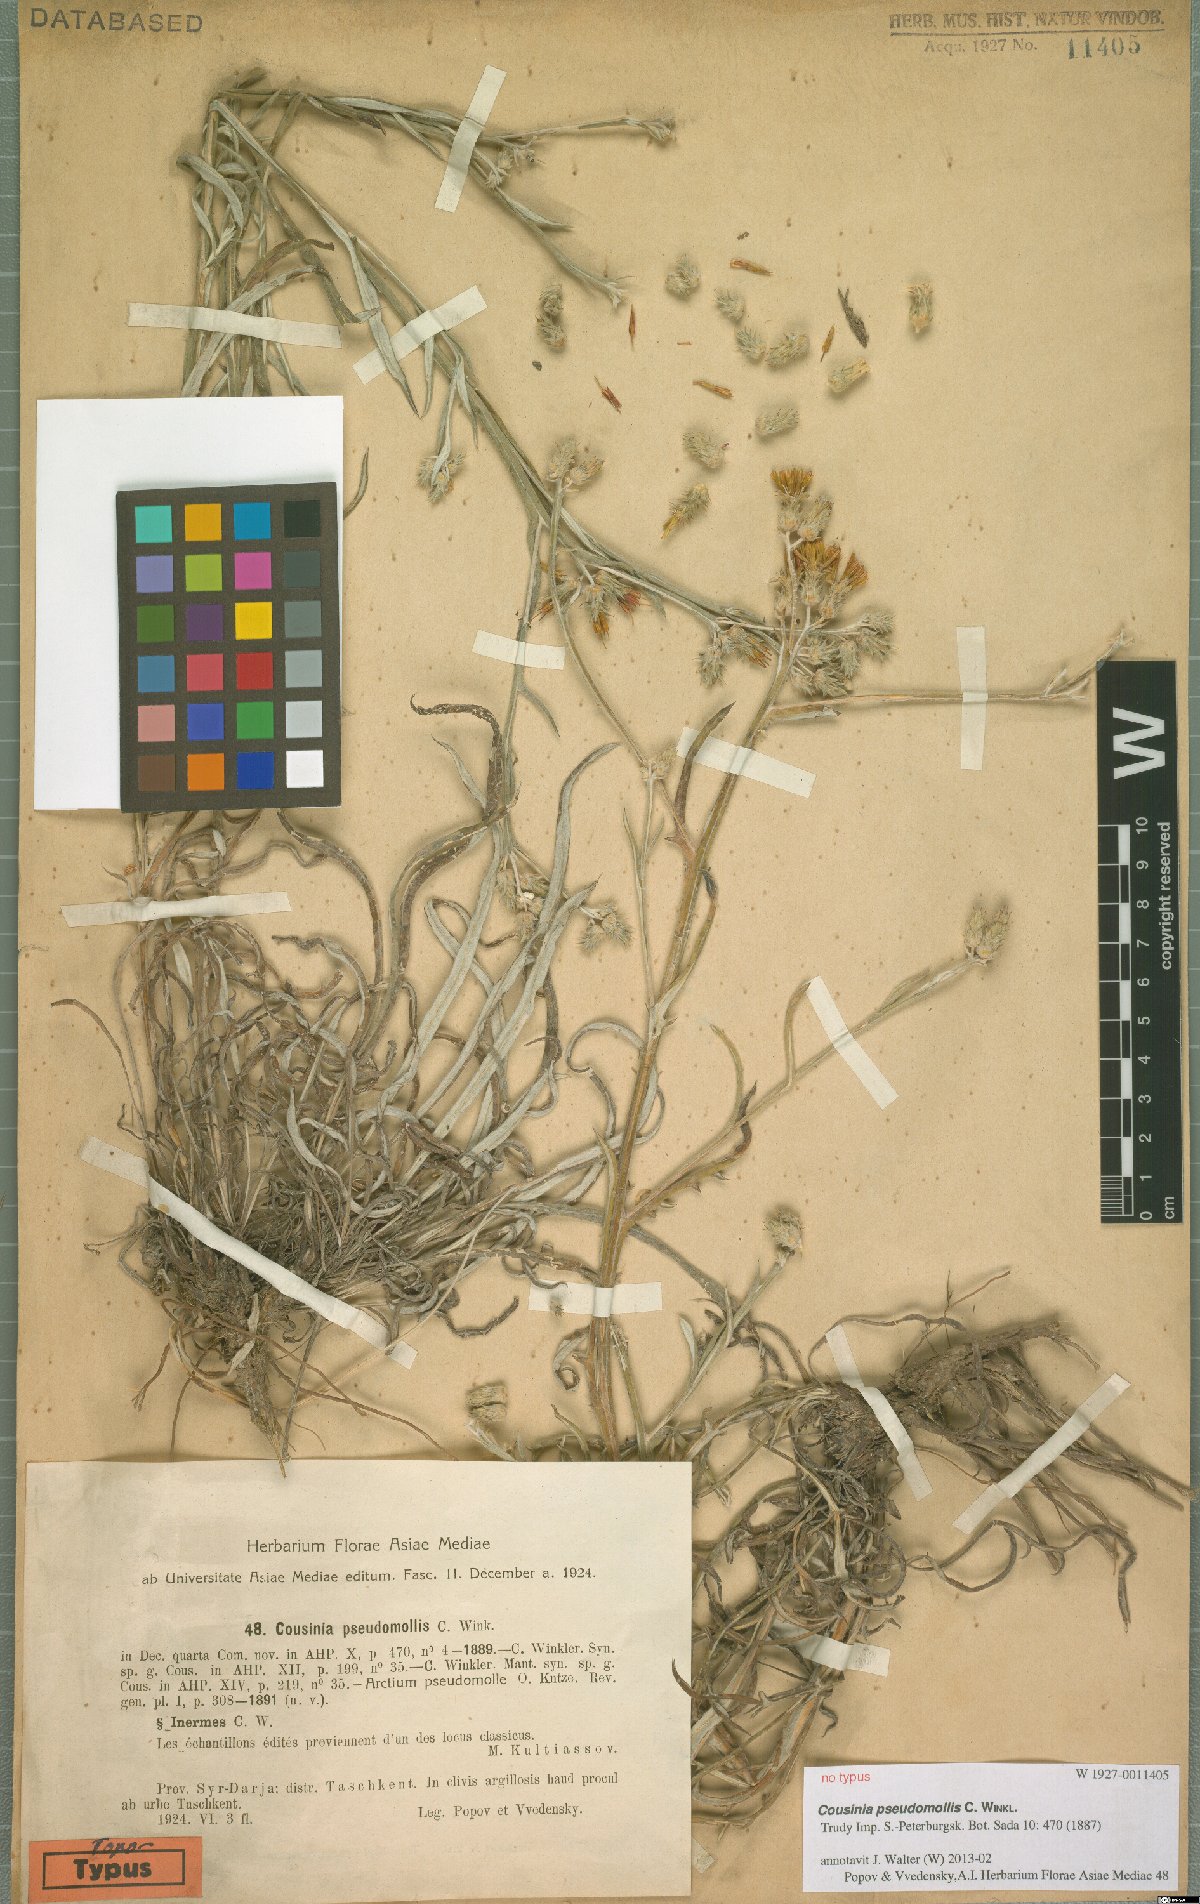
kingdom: Plantae
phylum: Tracheophyta
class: Magnoliopsida
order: Asterales
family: Asteraceae
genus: Cousinia
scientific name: Cousinia pseudomollis
